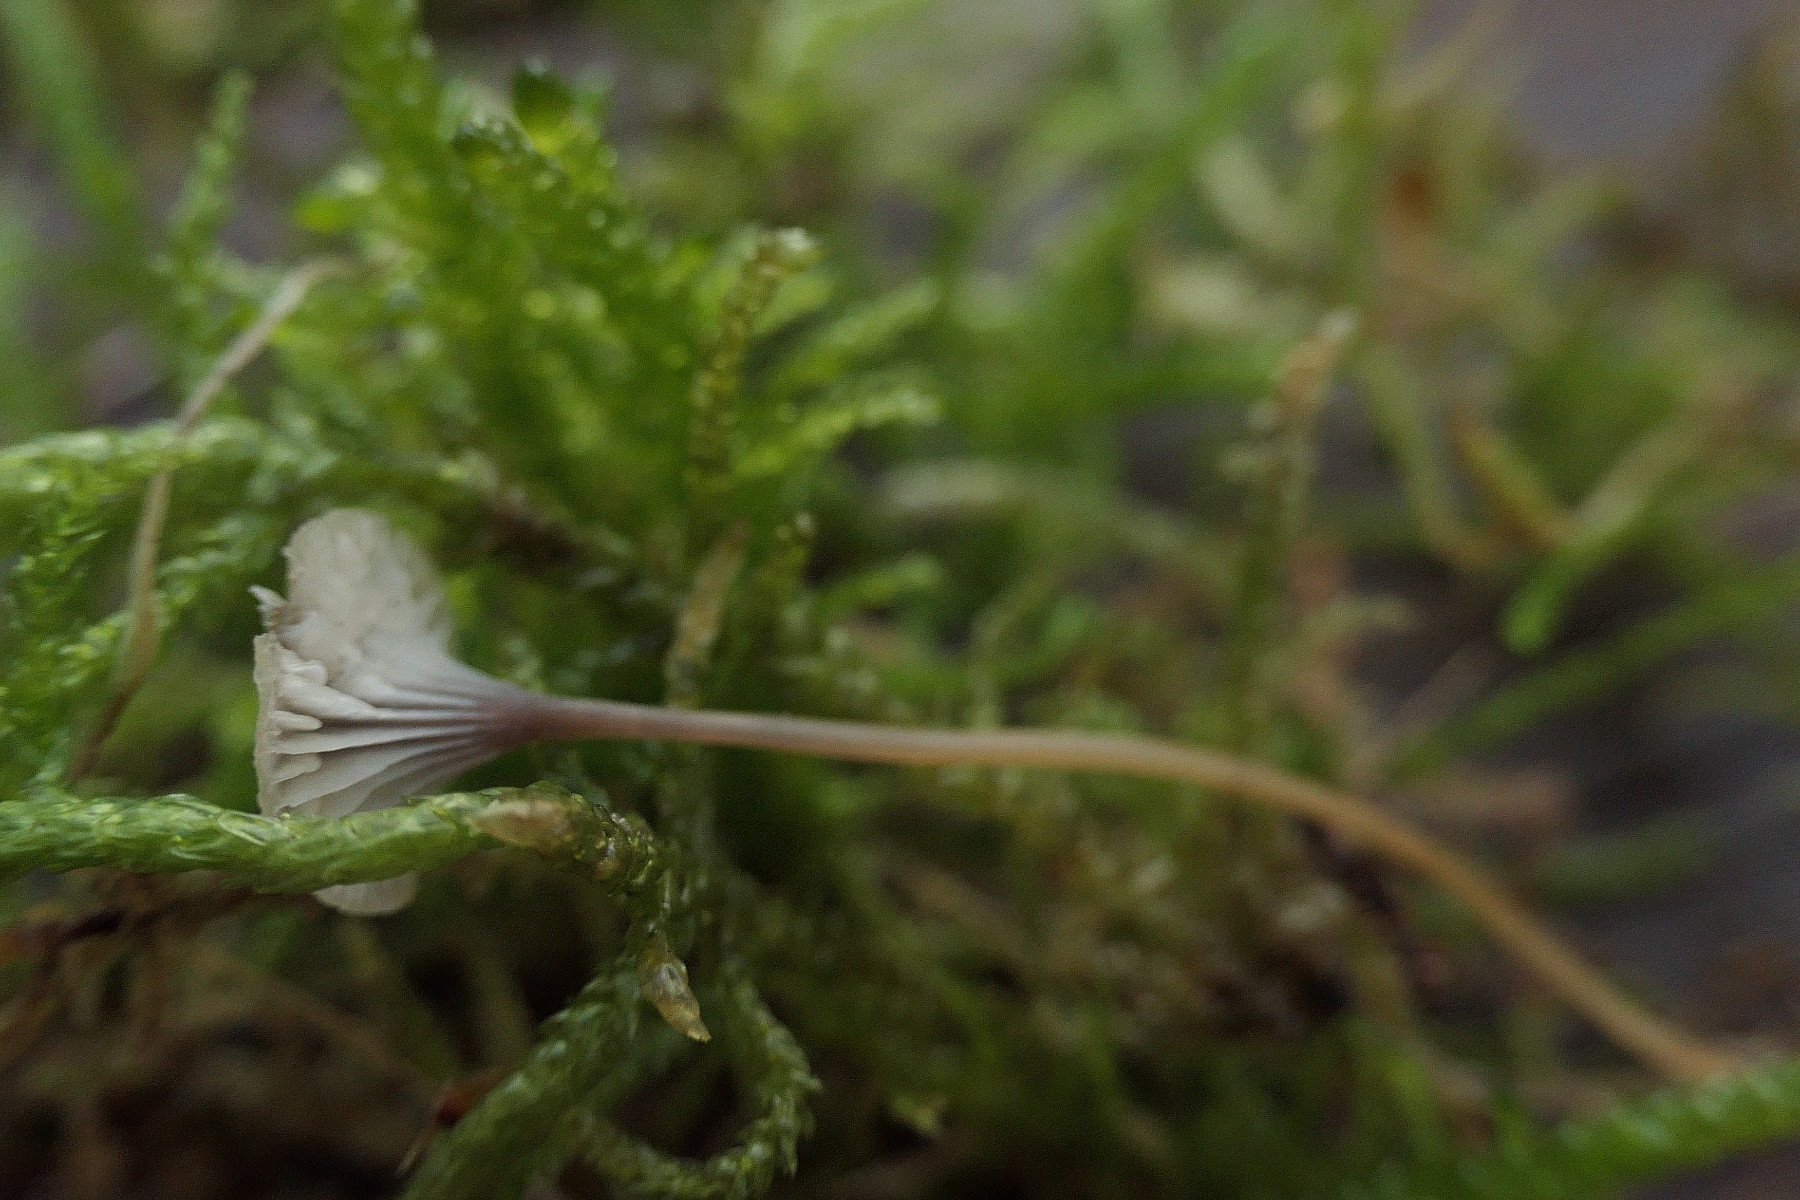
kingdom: Fungi
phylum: Basidiomycota
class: Agaricomycetes
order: Hymenochaetales
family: Rickenellaceae
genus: Rickenella
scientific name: Rickenella swartzii
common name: finstokket mosnavlehat
